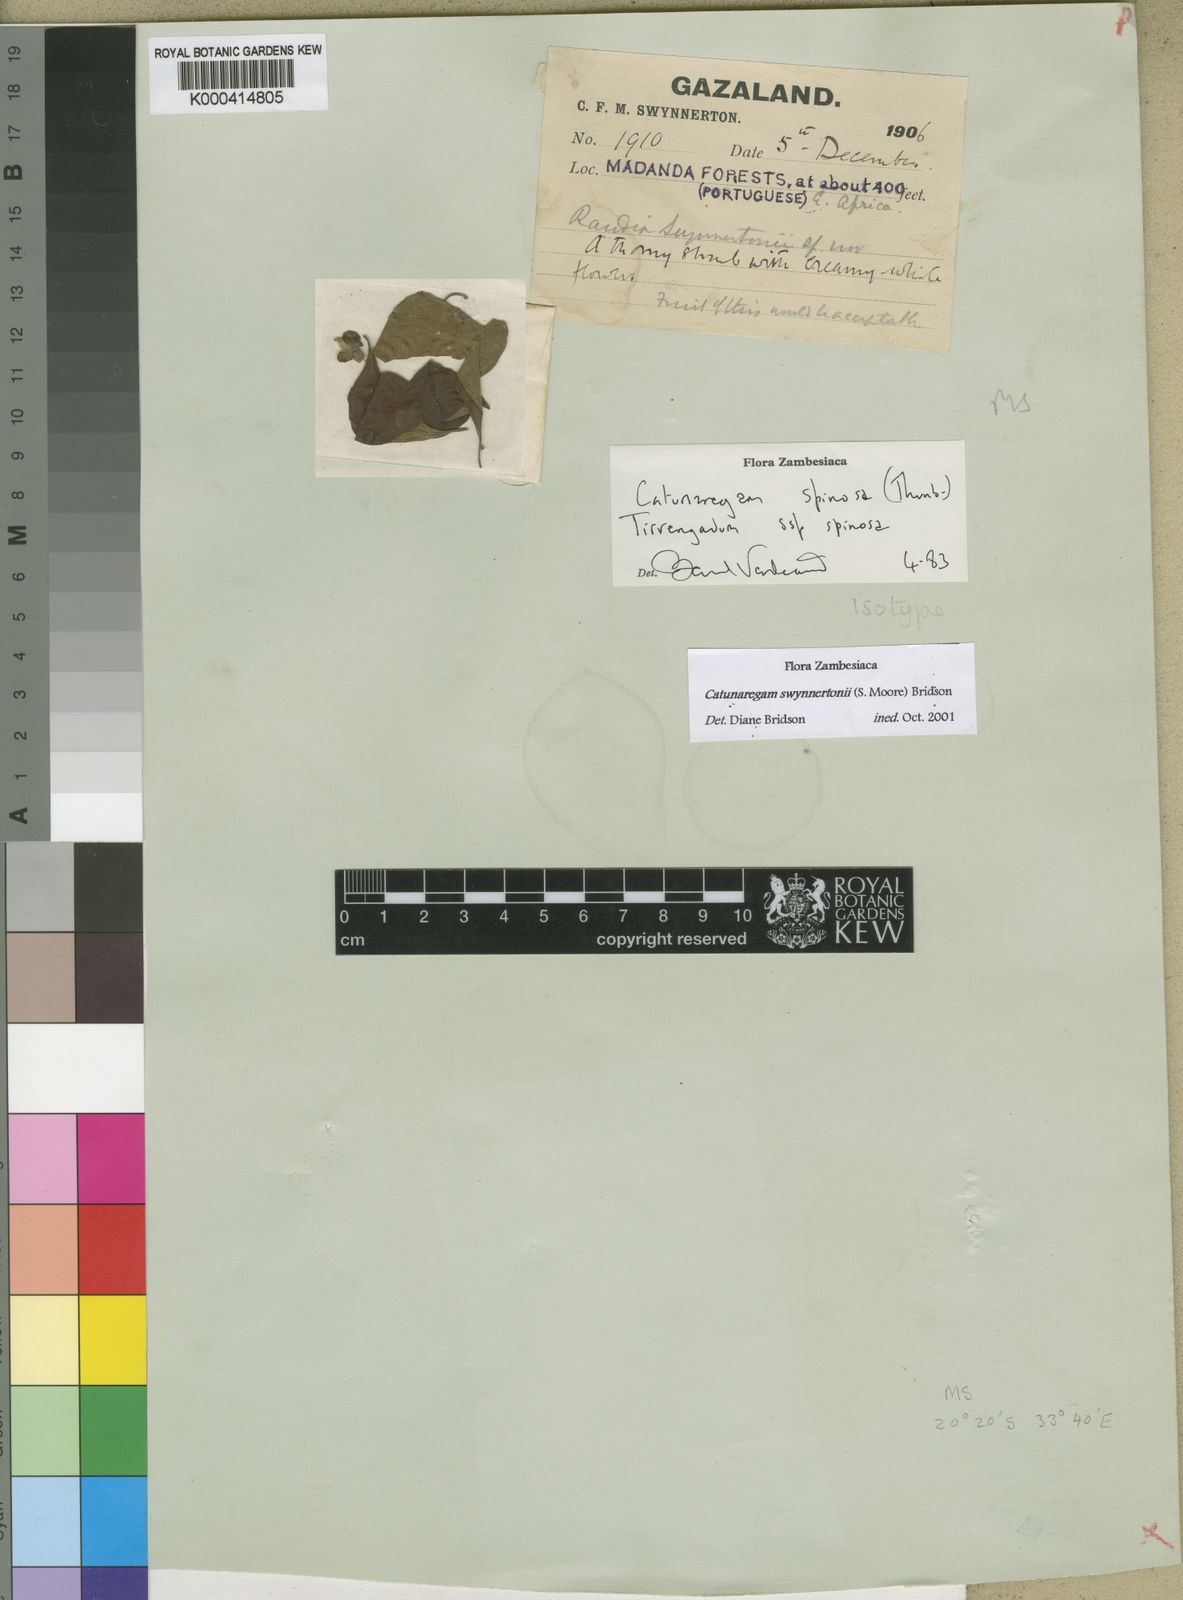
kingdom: Plantae
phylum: Tracheophyta
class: Magnoliopsida
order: Gentianales
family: Rubiaceae
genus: Catunaregam
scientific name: Catunaregam swynnertonii
